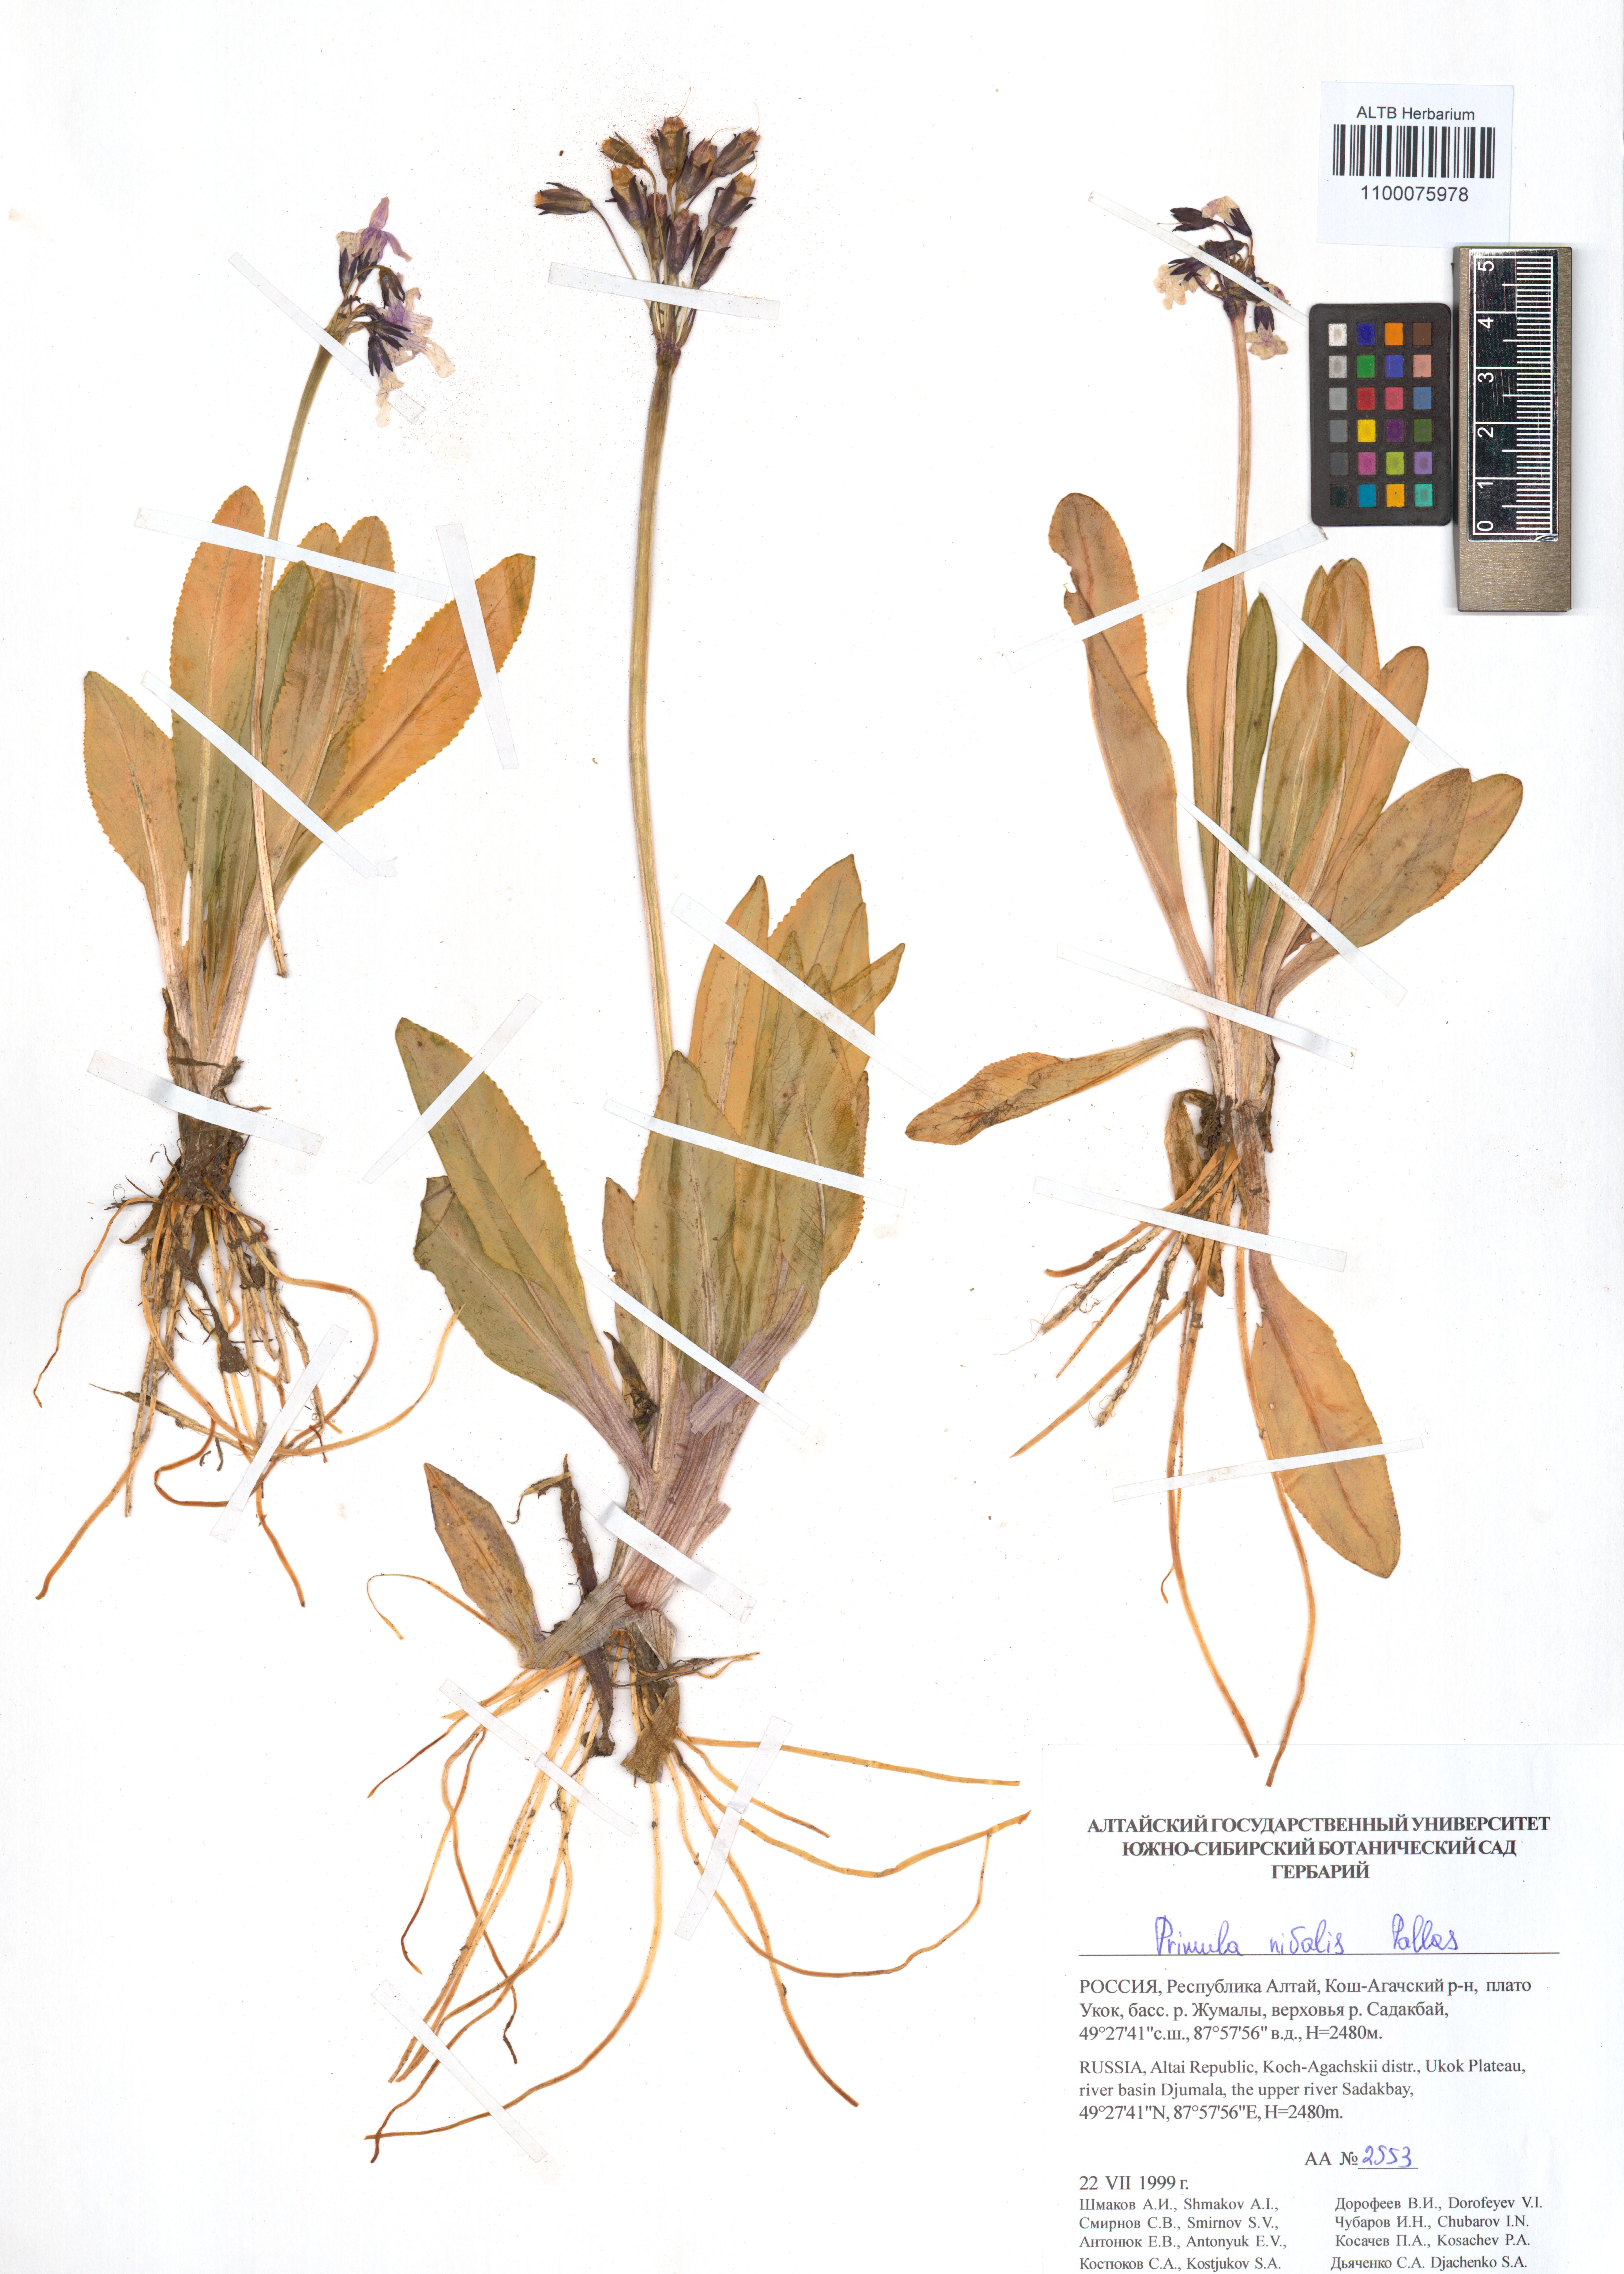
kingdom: Plantae
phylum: Tracheophyta
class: Magnoliopsida
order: Ericales
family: Primulaceae
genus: Primula
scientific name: Primula nivalis
